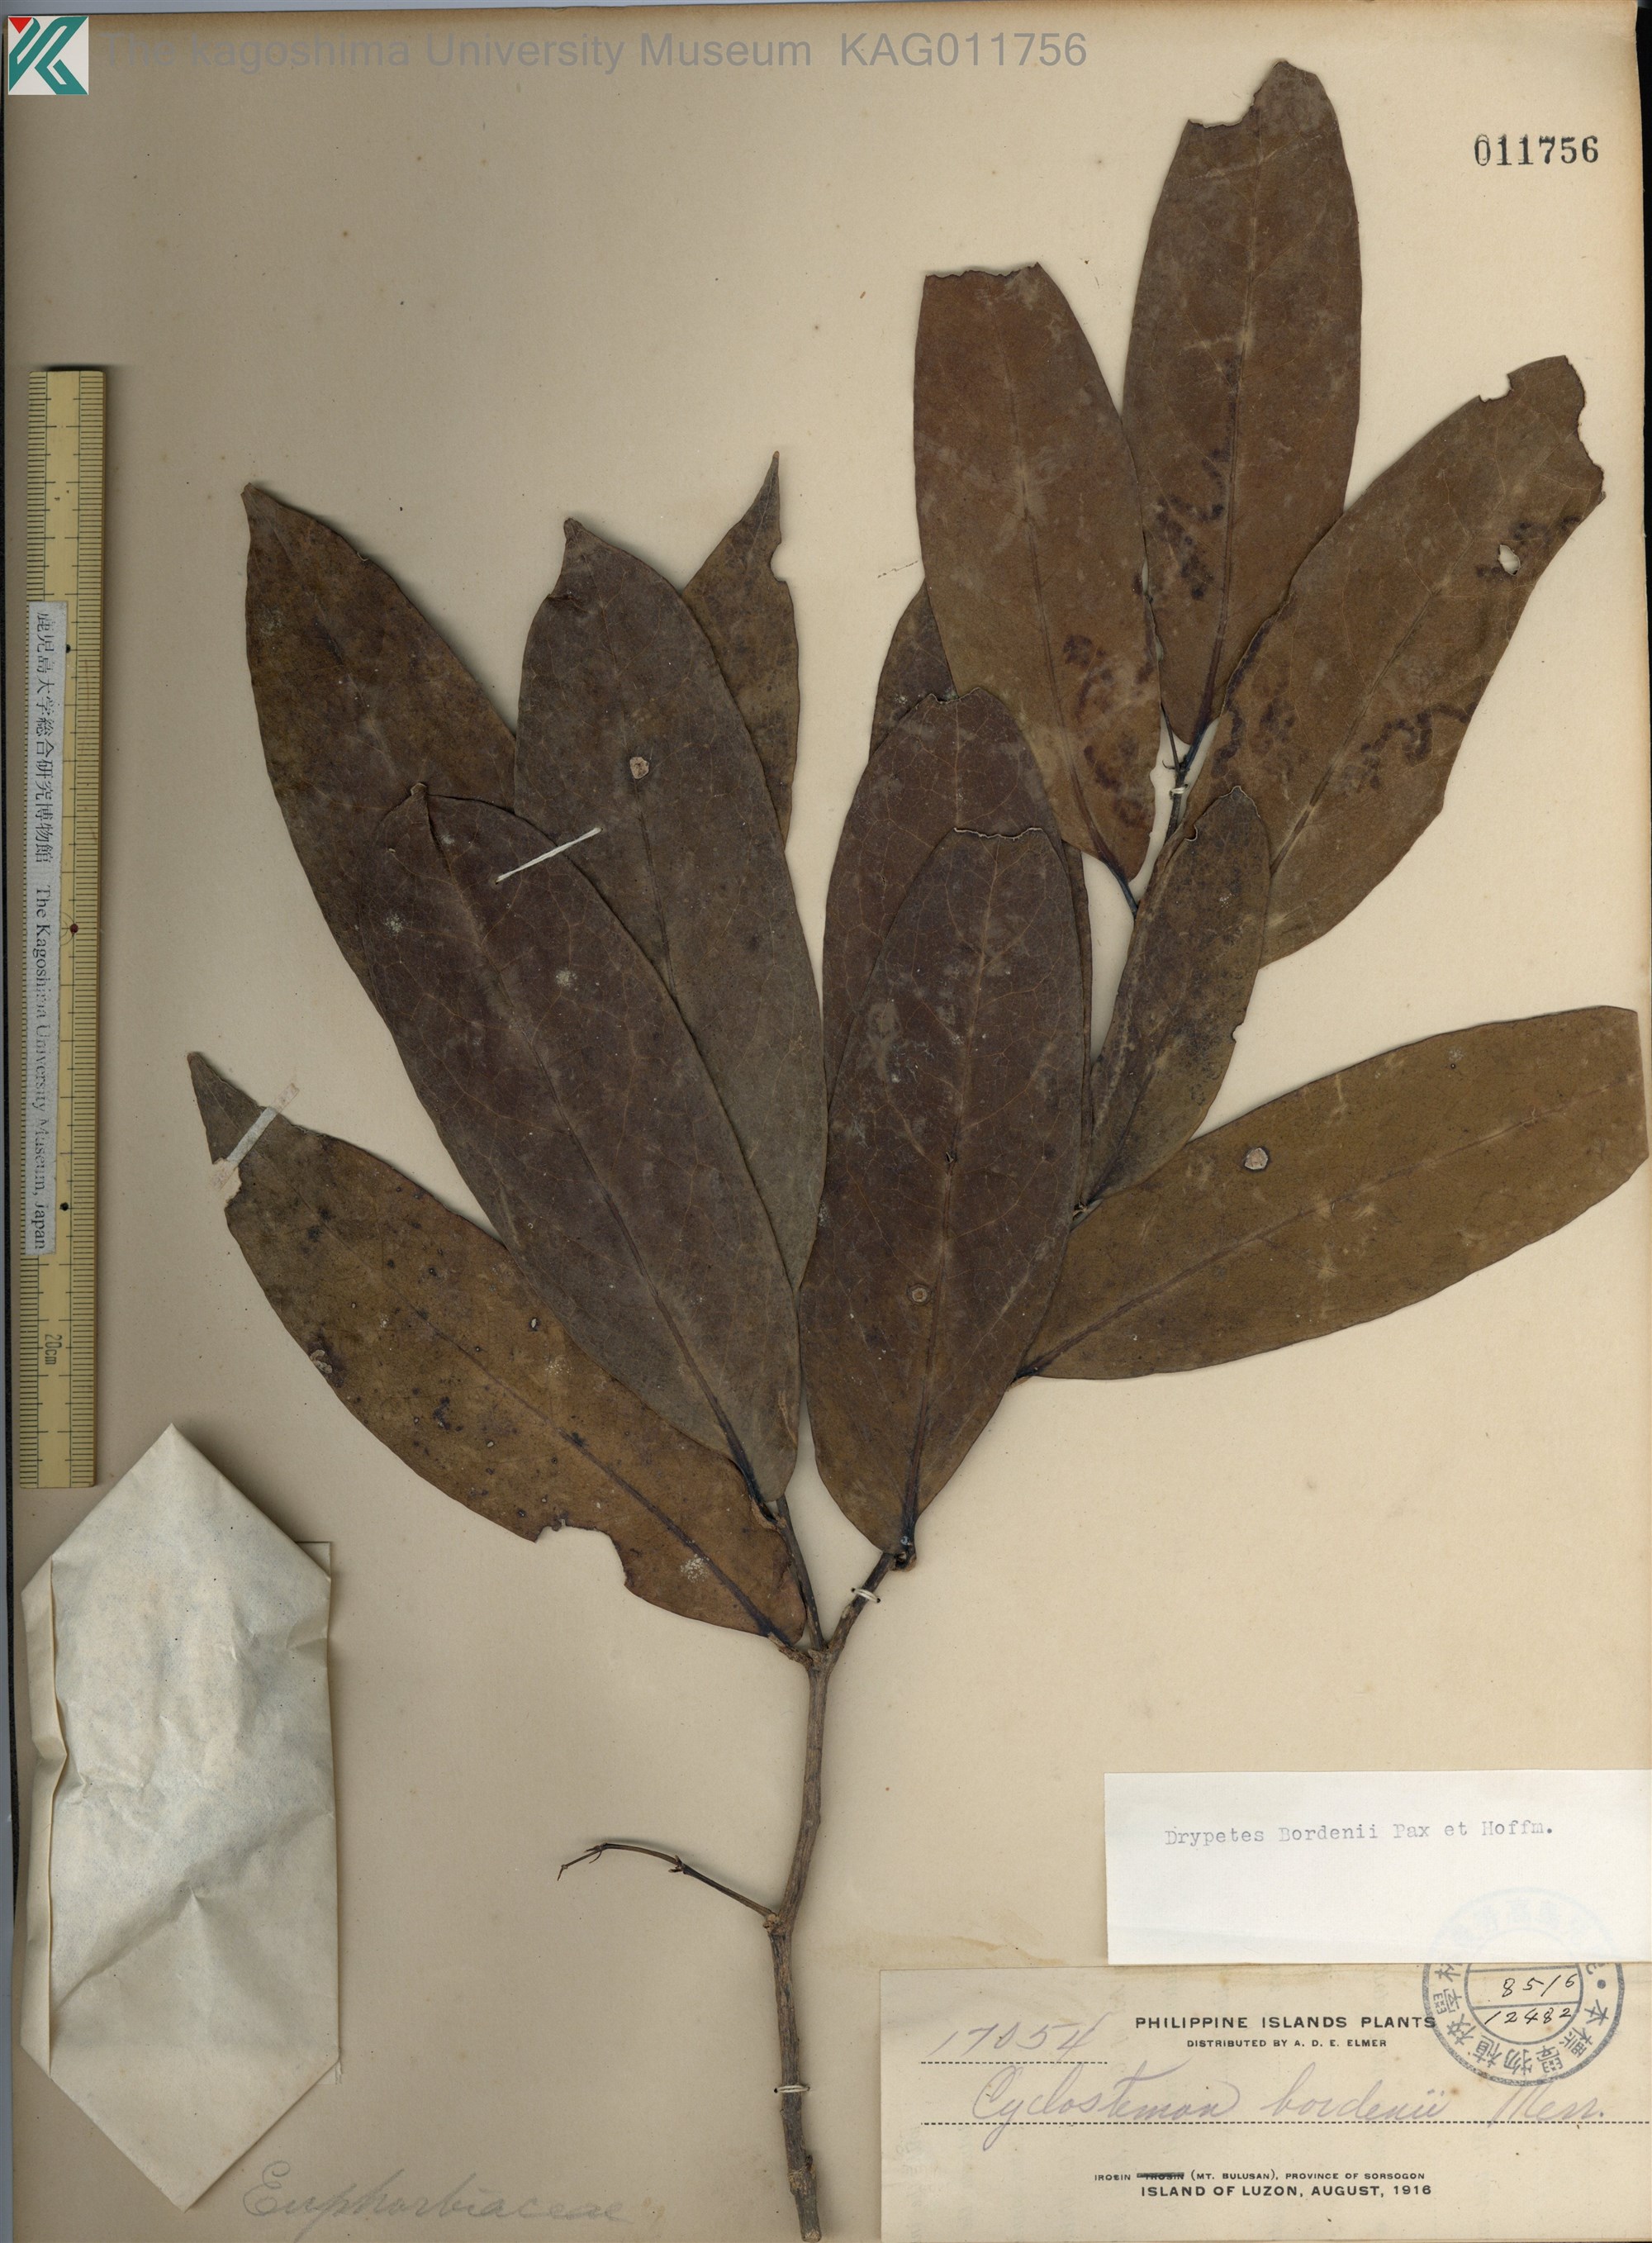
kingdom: Plantae
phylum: Tracheophyta
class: Magnoliopsida
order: Malpighiales
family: Putranjivaceae
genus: Drypetes
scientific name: Drypetes longifolia
